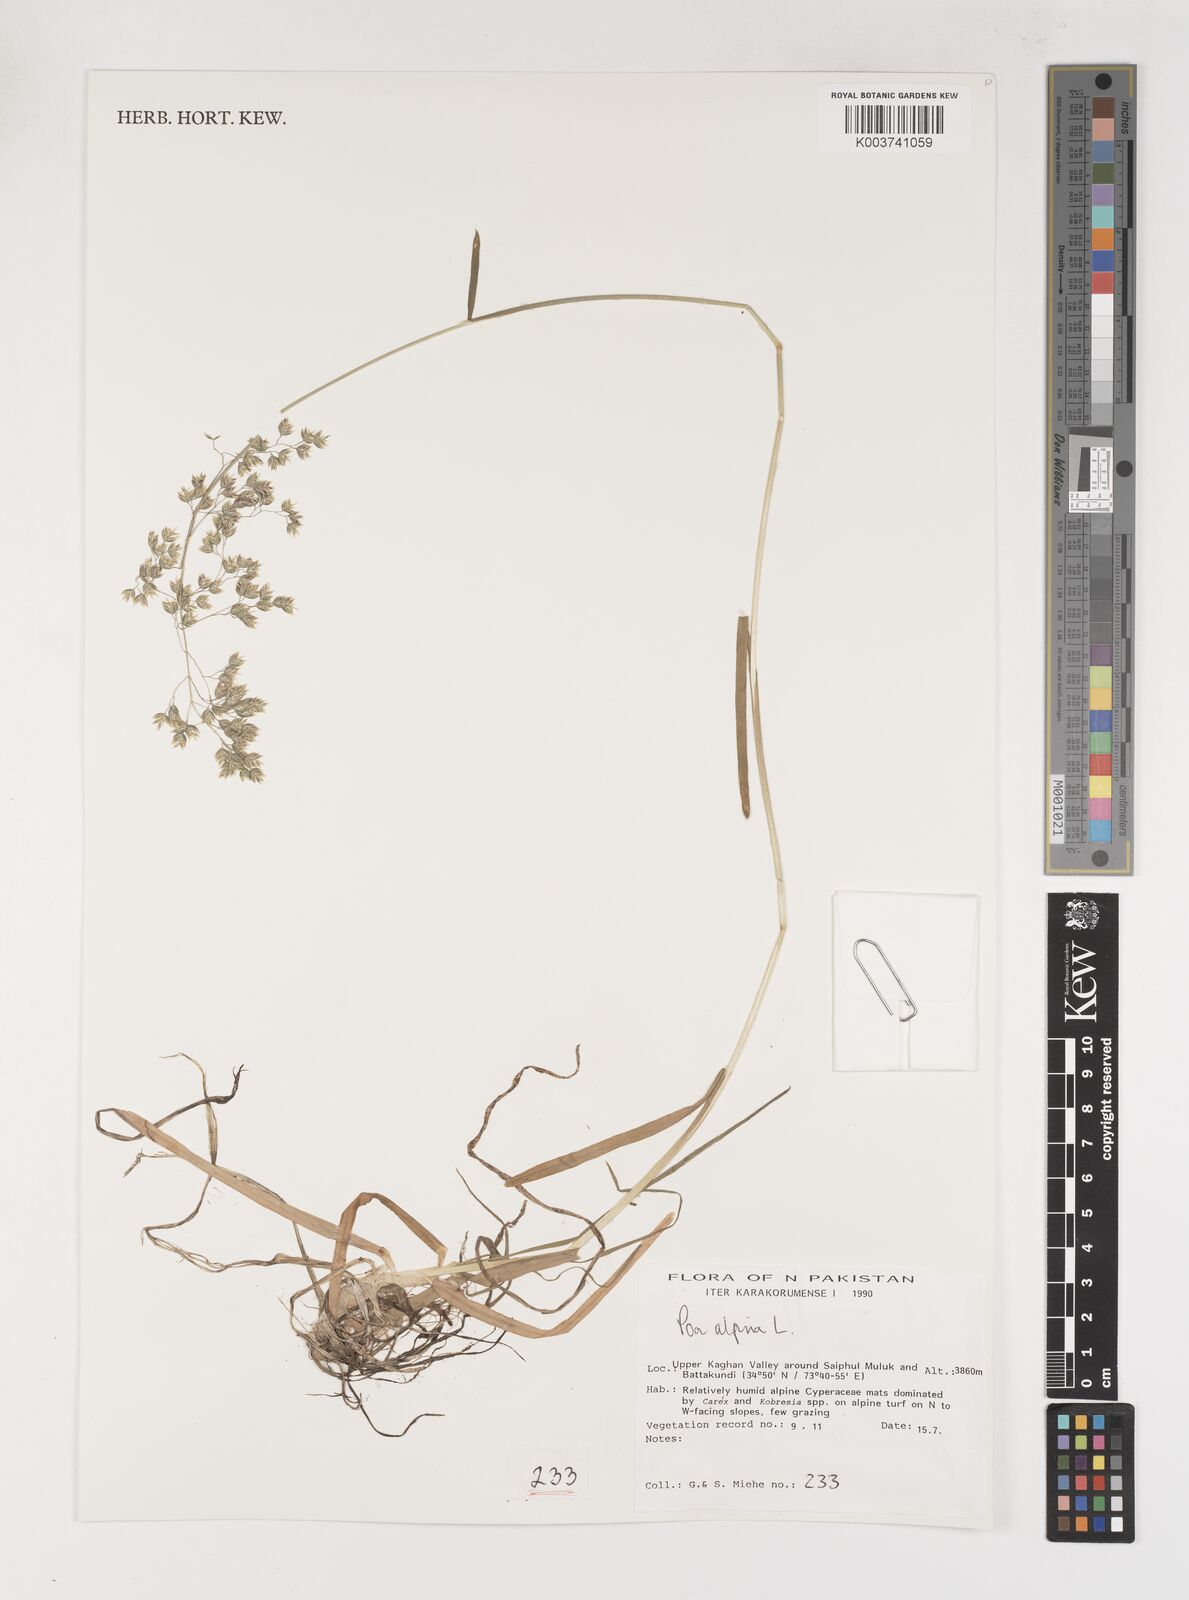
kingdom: Plantae
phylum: Tracheophyta
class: Liliopsida
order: Poales
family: Poaceae
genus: Poa
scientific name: Poa alpina
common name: Alpine bluegrass
